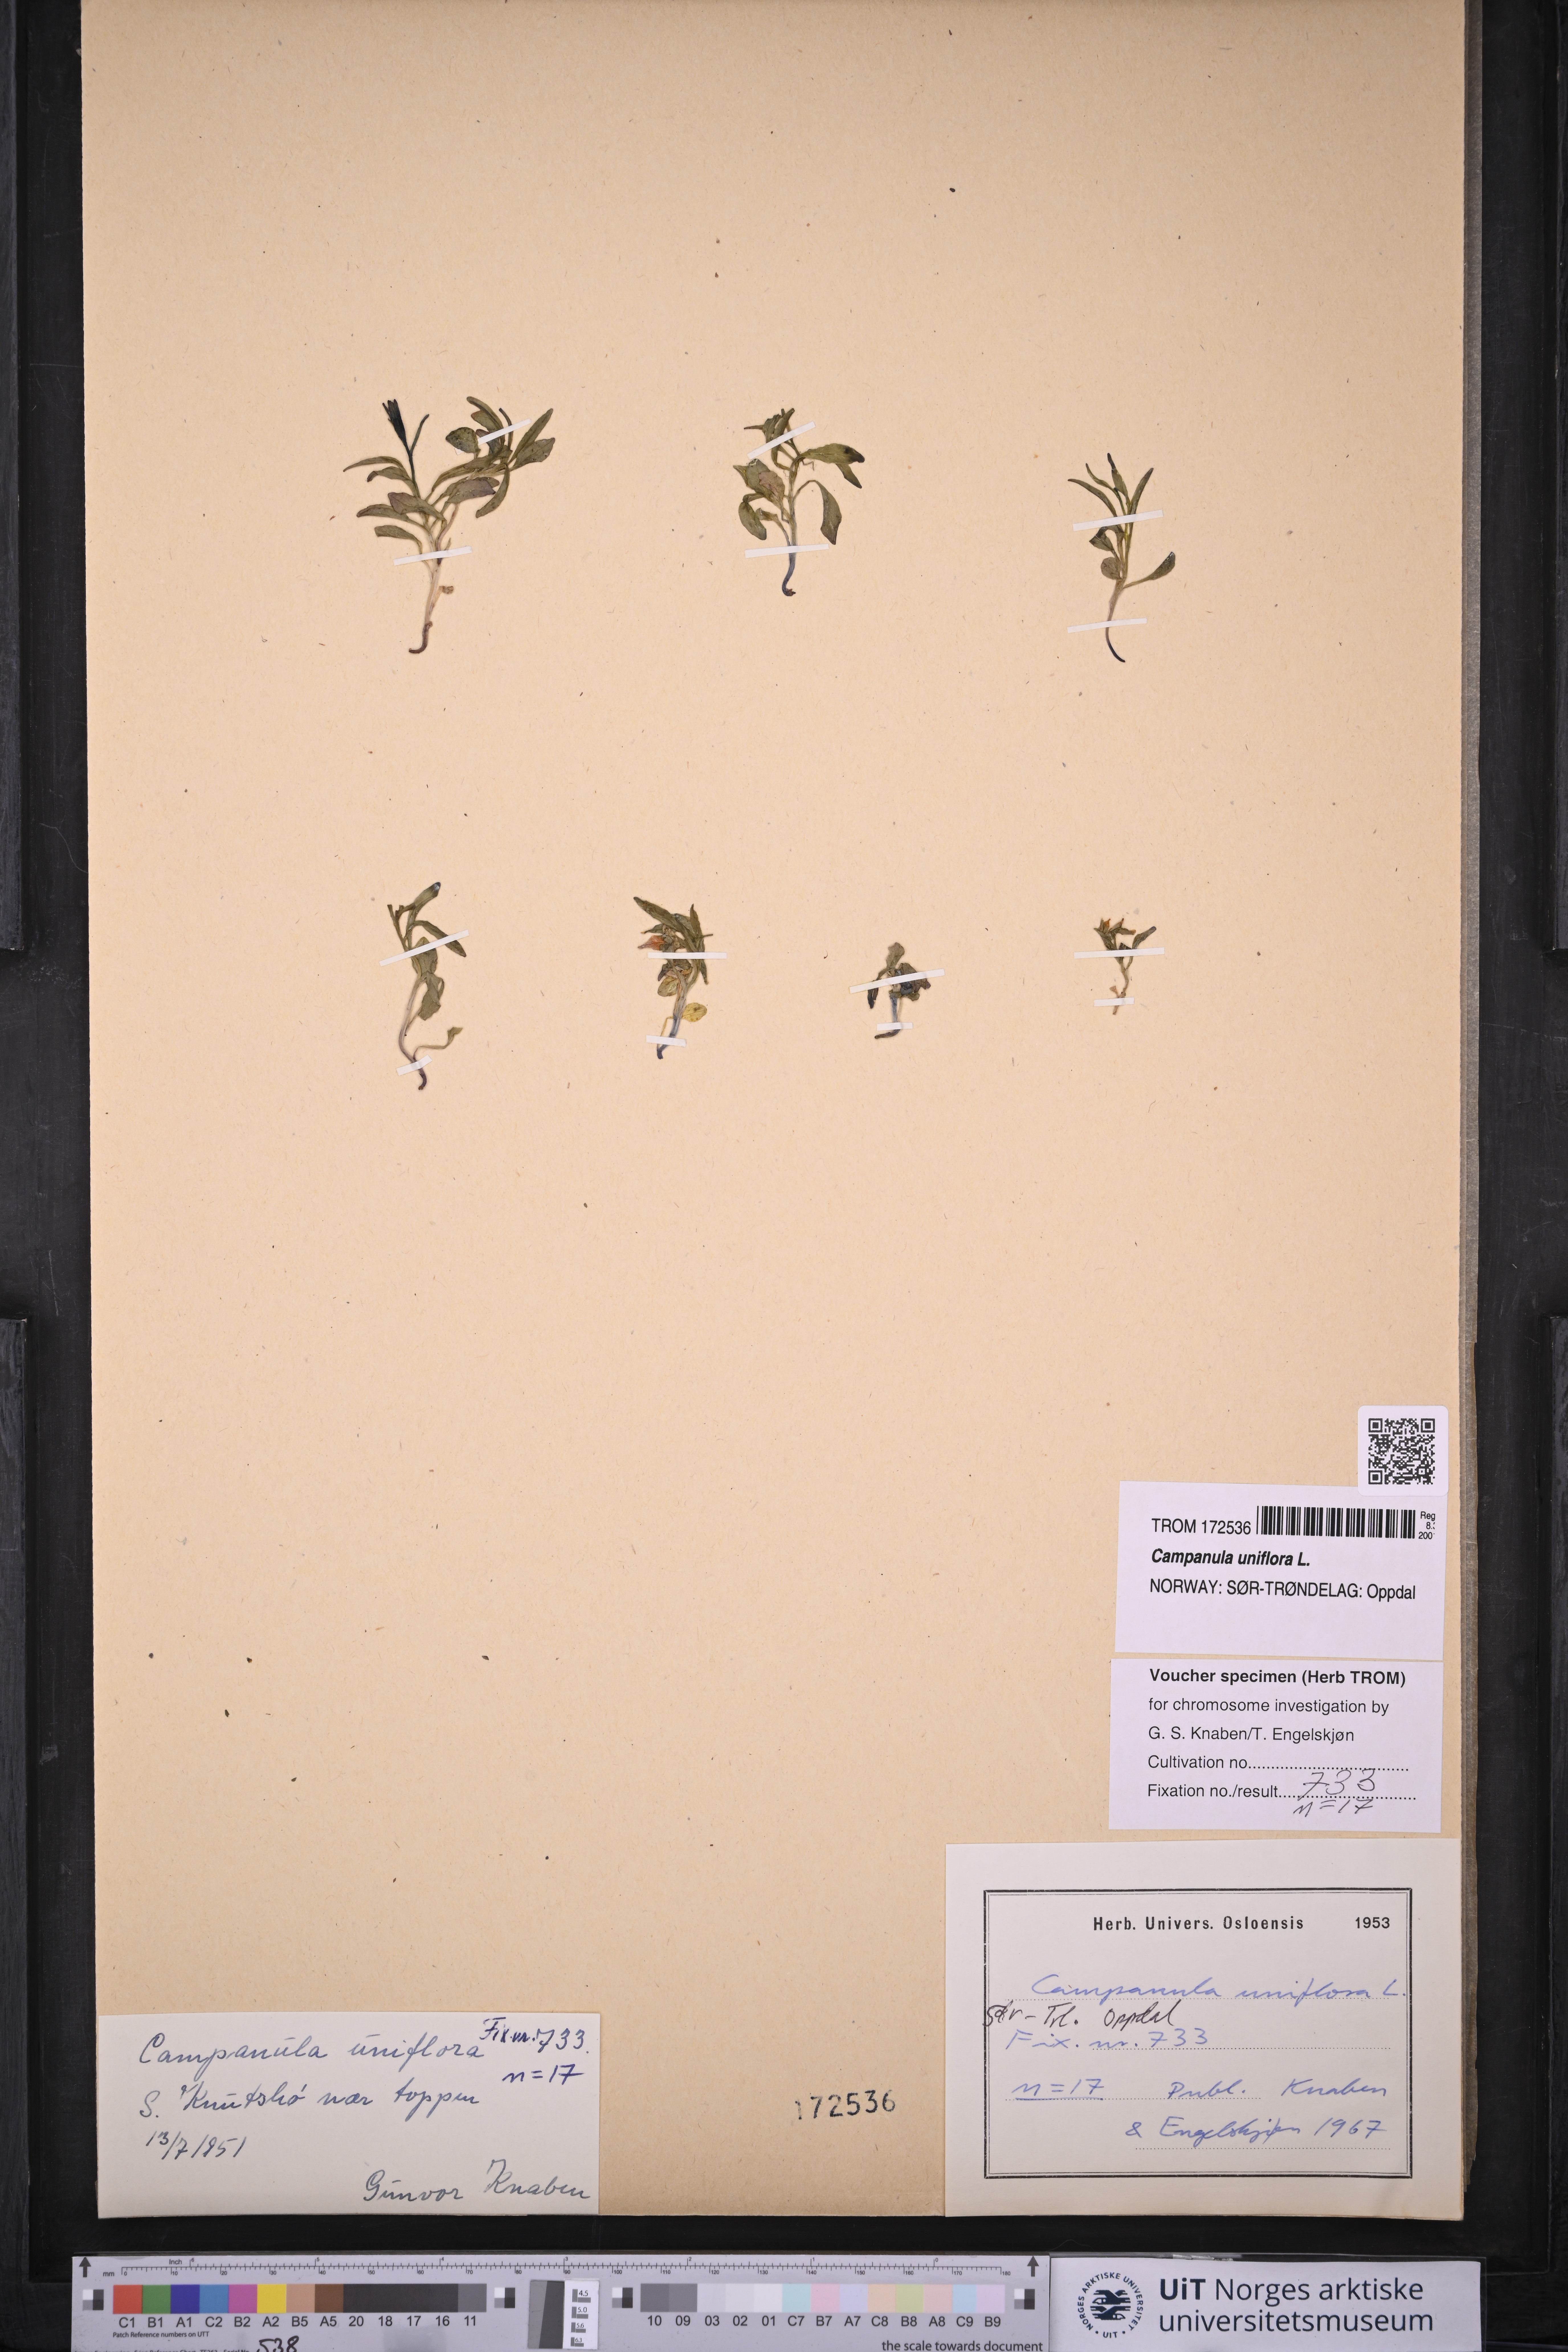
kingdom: Plantae
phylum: Tracheophyta
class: Magnoliopsida
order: Asterales
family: Campanulaceae
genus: Melanocalyx
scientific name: Melanocalyx uniflora
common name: Alpine harebell
